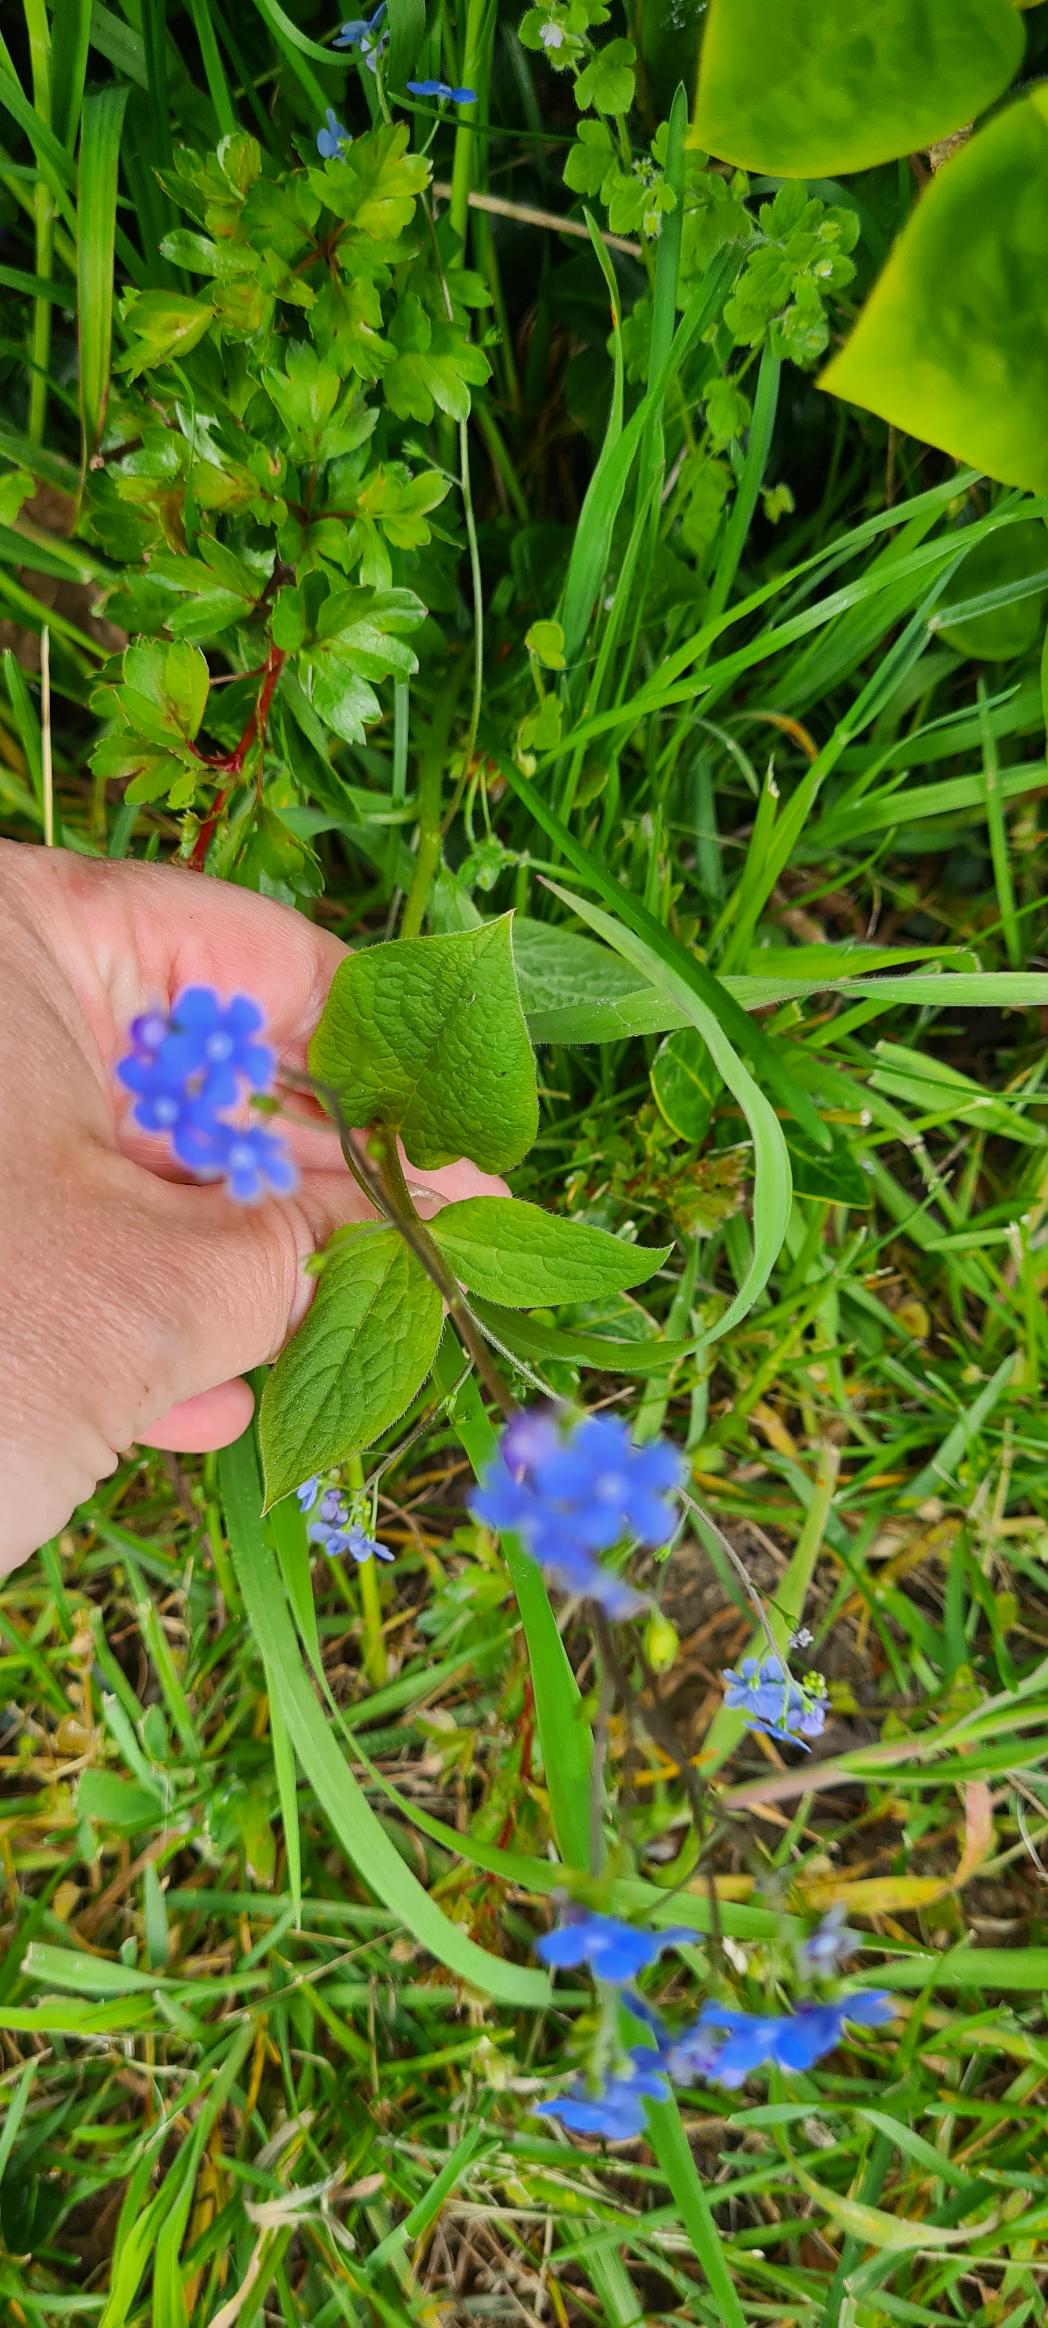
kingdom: Plantae
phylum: Tracheophyta
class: Magnoliopsida
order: Boraginales
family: Boraginaceae
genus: Brunnera
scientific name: Brunnera macrophylla
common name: Kærmindesøster
